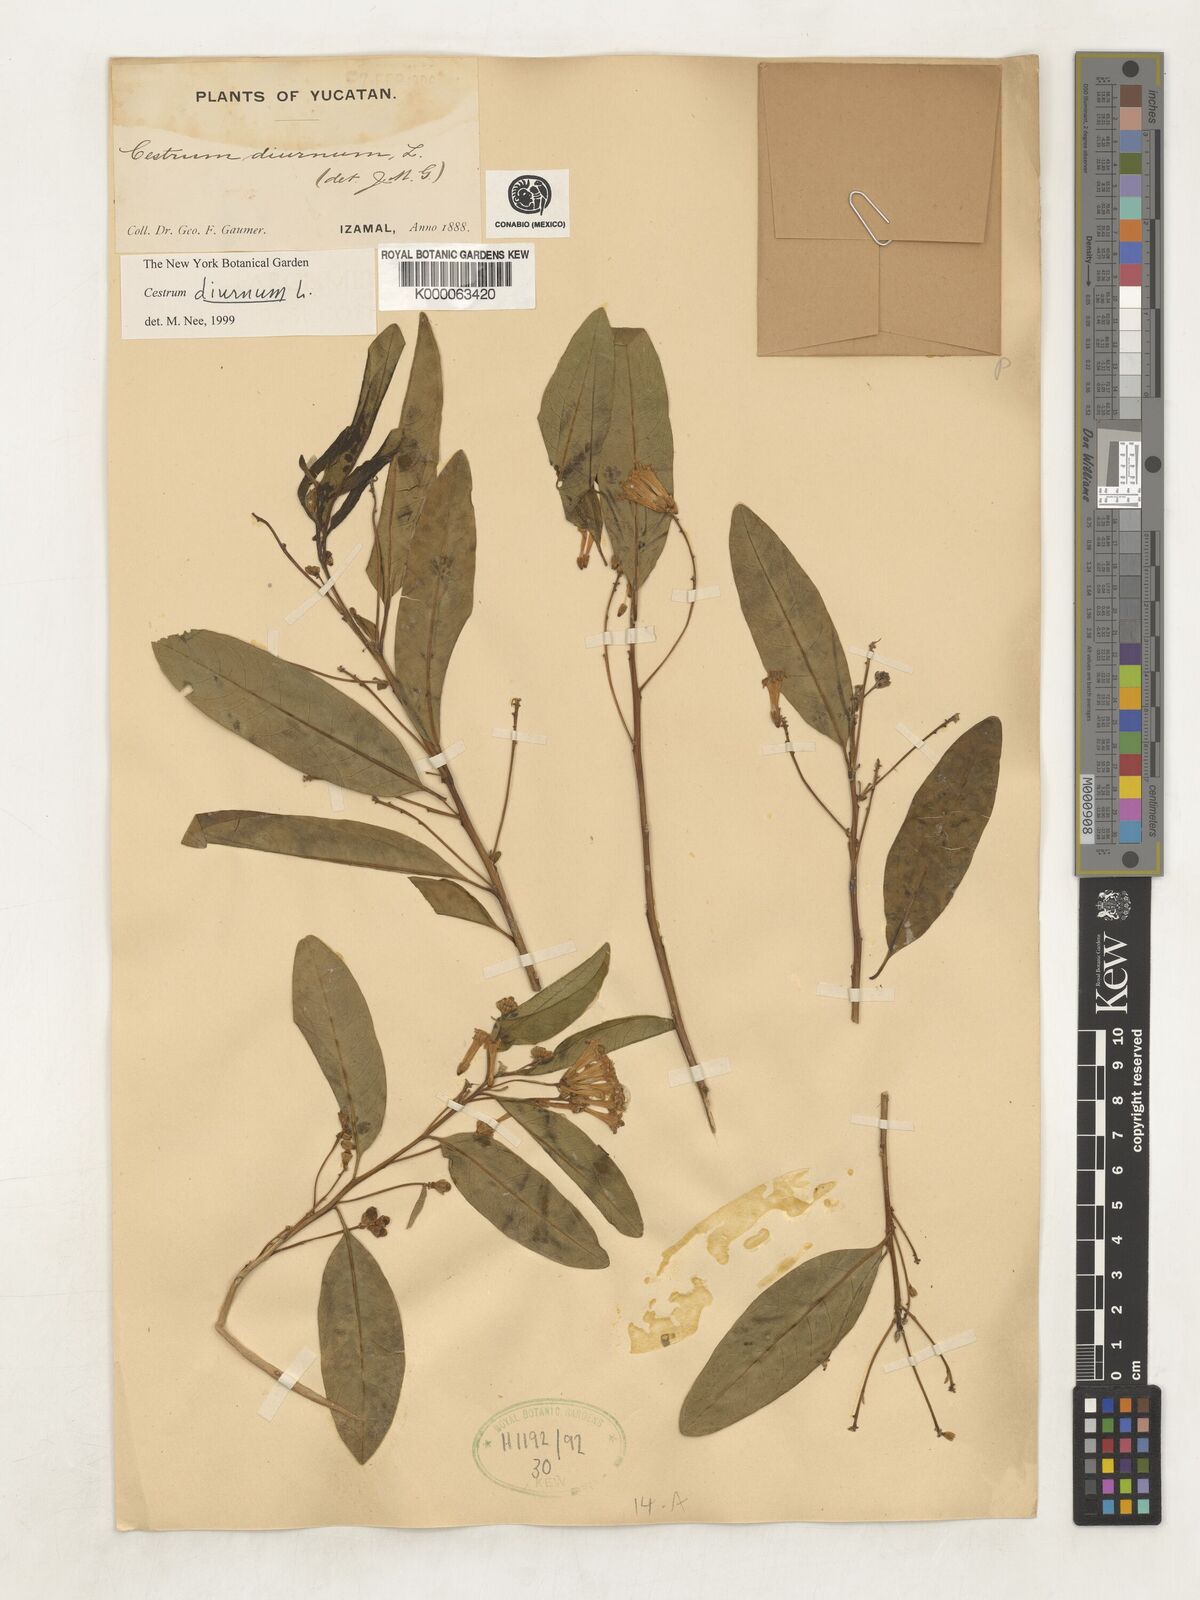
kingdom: Plantae
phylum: Tracheophyta
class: Magnoliopsida
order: Solanales
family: Solanaceae
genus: Cestrum
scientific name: Cestrum diurnum
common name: Day jessamine
